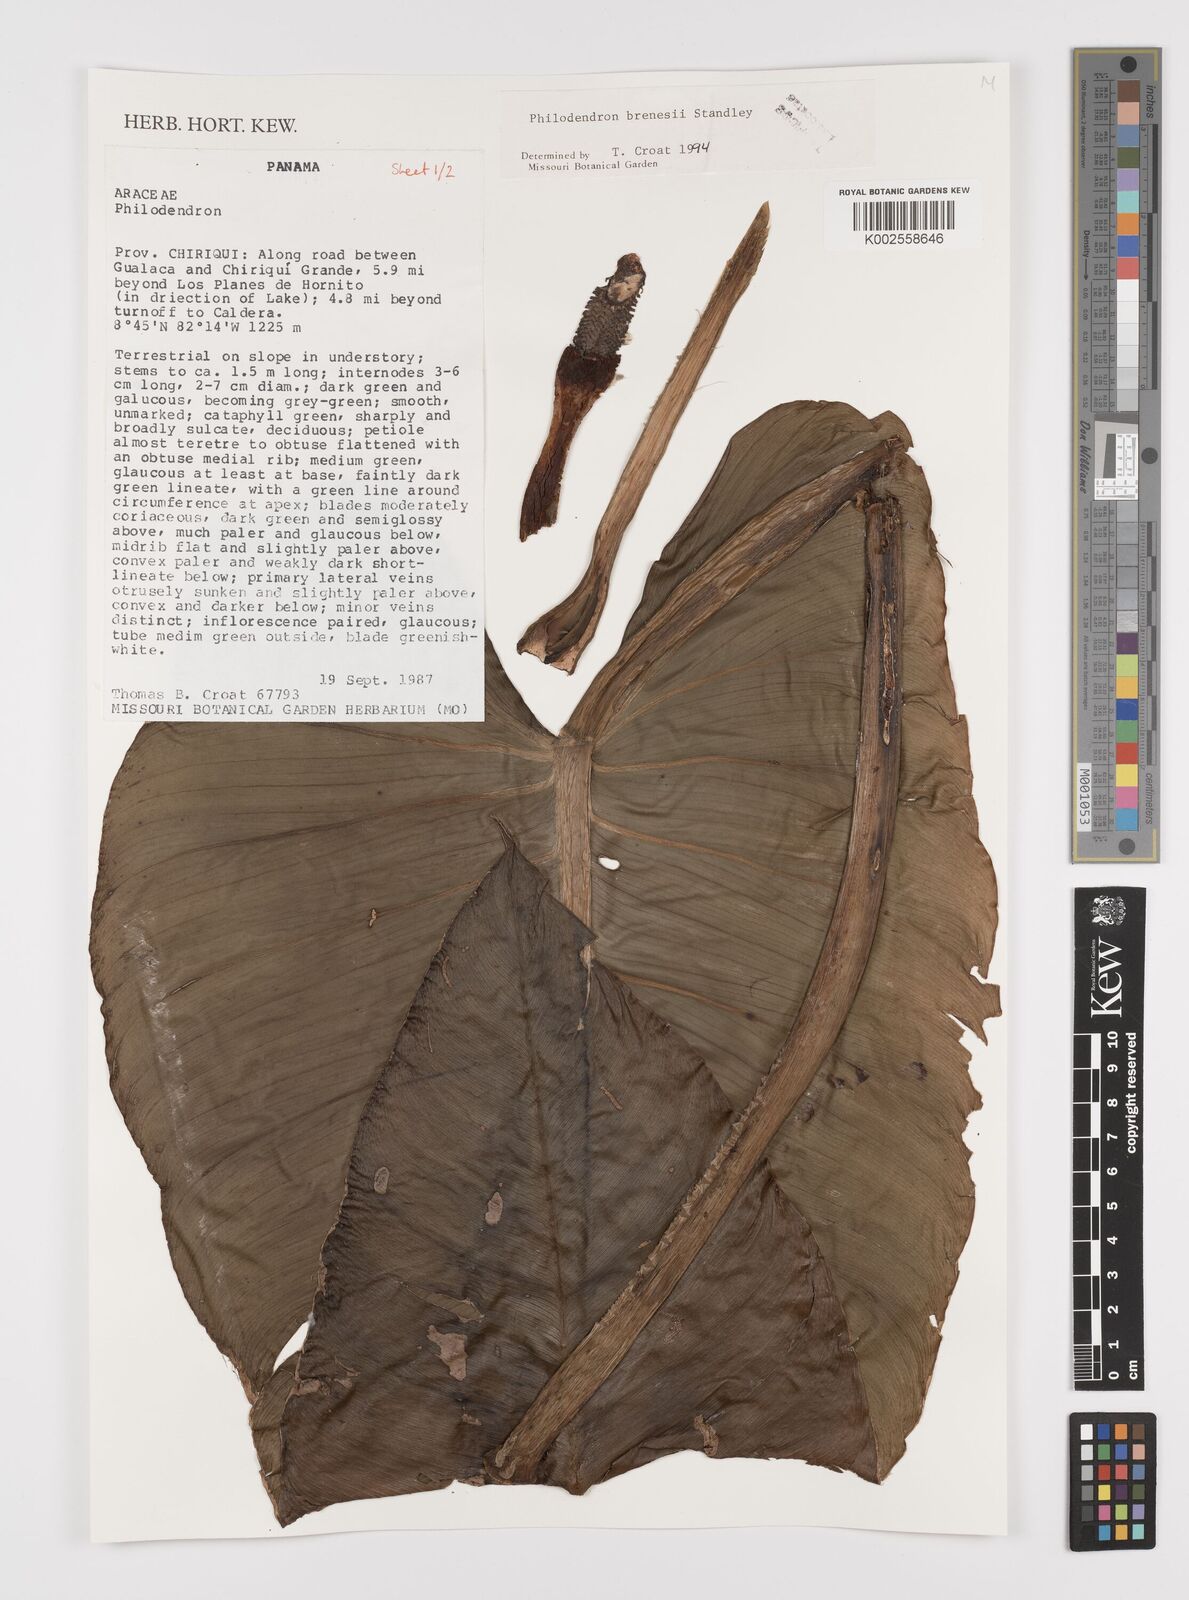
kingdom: Plantae
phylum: Tracheophyta
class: Liliopsida
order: Alismatales
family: Araceae
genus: Philodendron
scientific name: Philodendron brenesii
